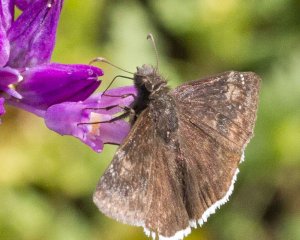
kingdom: Animalia
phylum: Arthropoda
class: Insecta
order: Lepidoptera
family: Hesperiidae
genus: Erynnis
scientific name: Erynnis funeralis
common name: Funereal Duskywing
